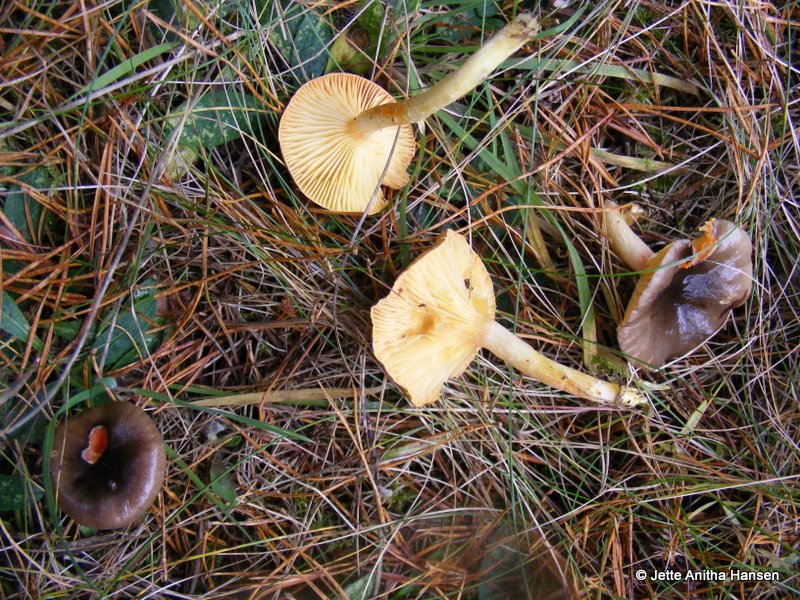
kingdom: Fungi
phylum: Basidiomycota
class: Agaricomycetes
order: Agaricales
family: Hygrophoraceae
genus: Hygrophorus
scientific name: Hygrophorus hypothejus
